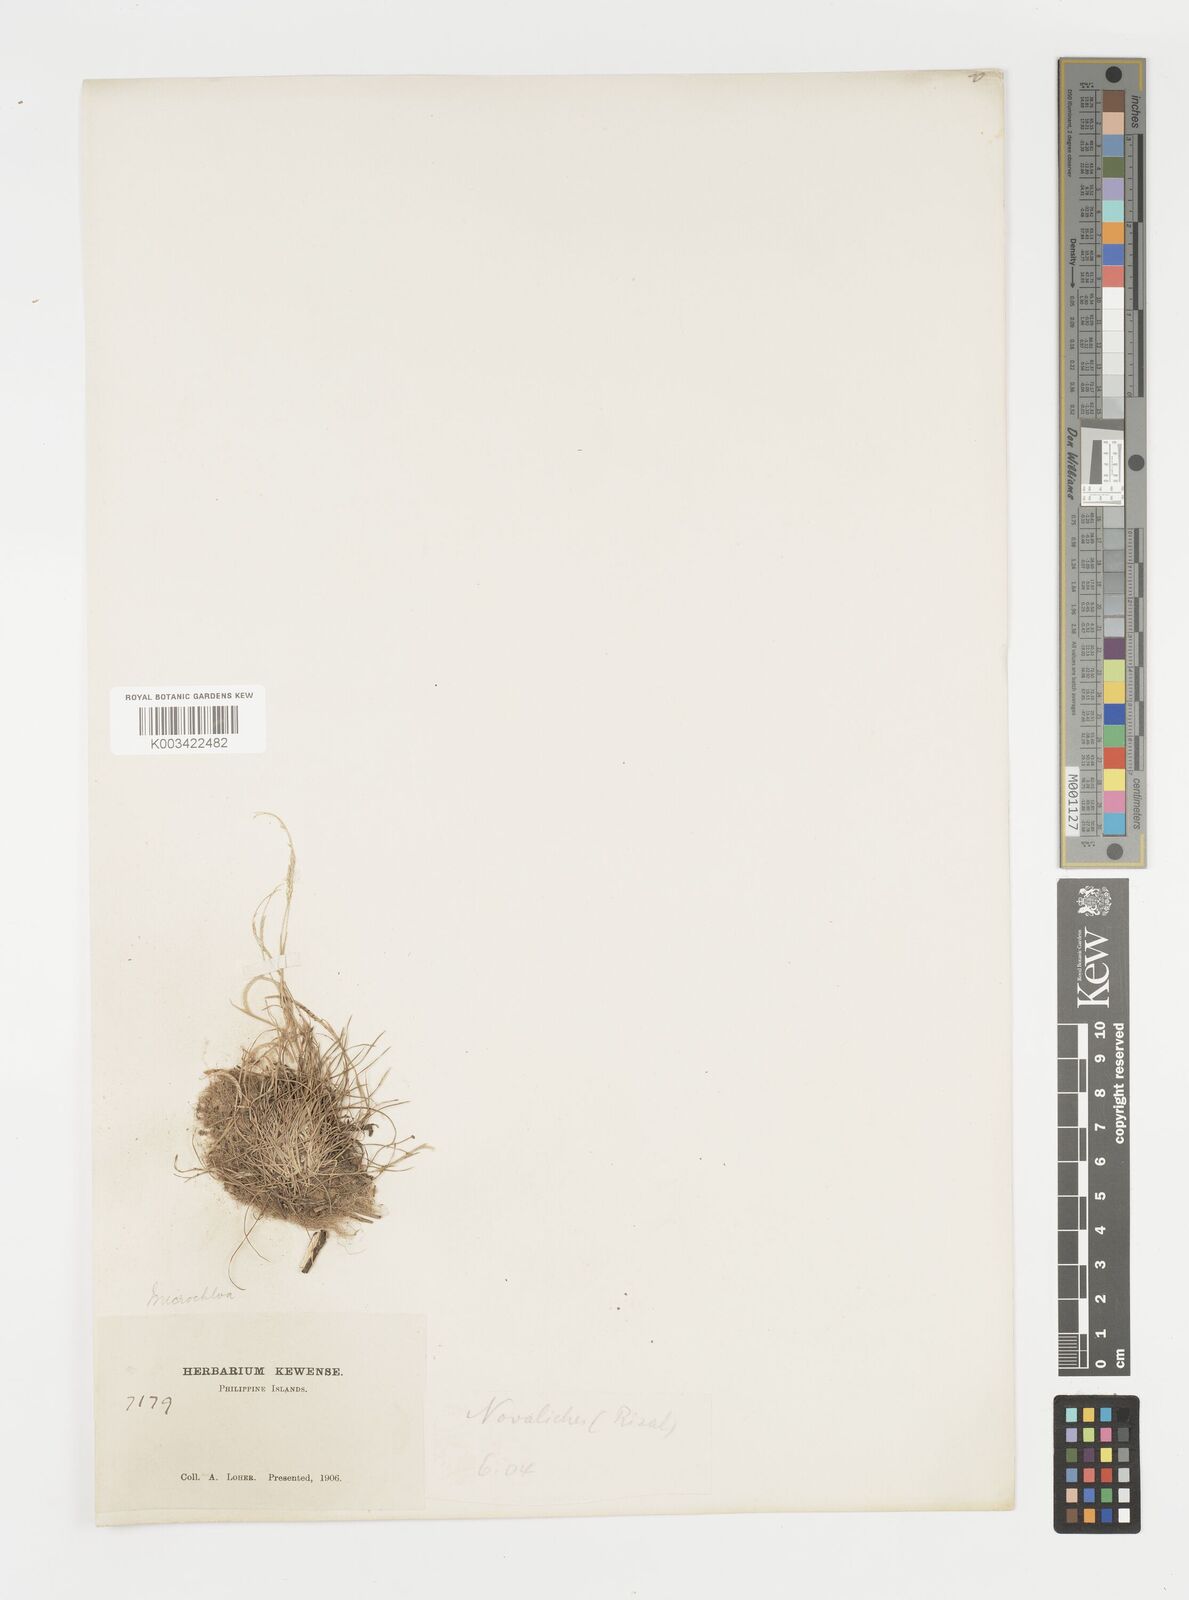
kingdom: Plantae
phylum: Tracheophyta
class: Liliopsida
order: Poales
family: Poaceae
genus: Microchloa
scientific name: Microchloa kunthii
